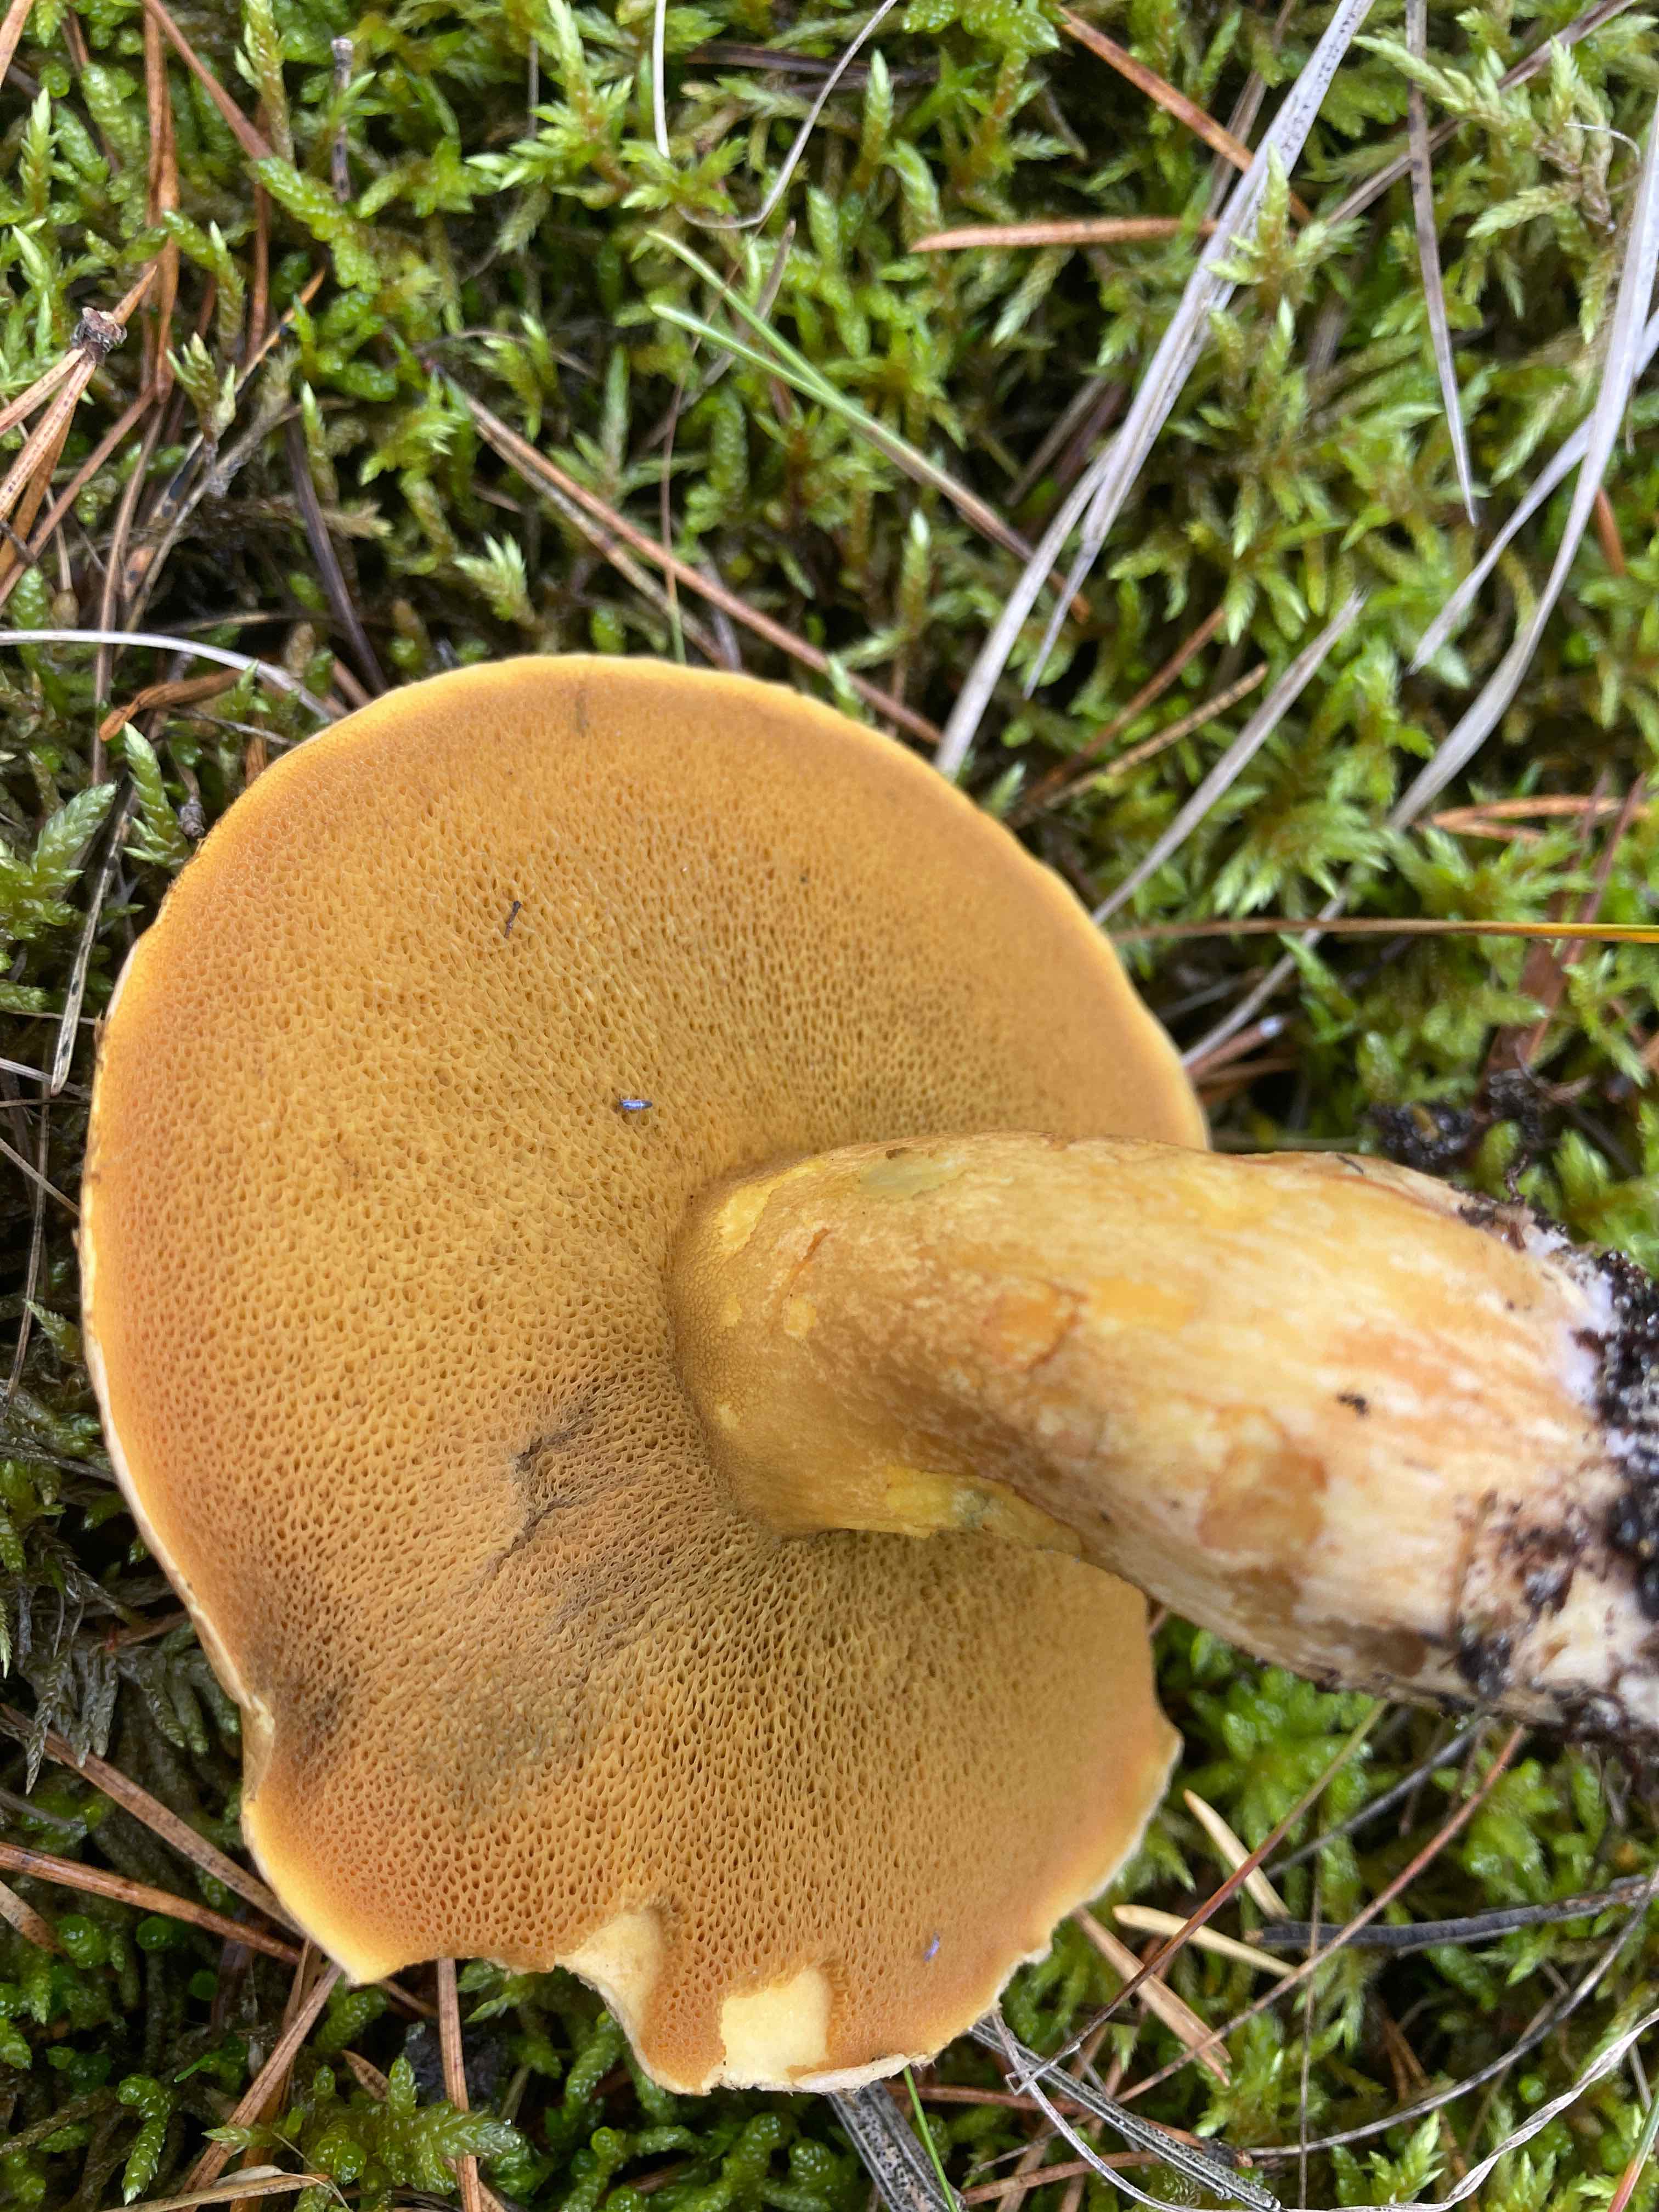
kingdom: Fungi
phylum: Basidiomycota
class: Agaricomycetes
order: Boletales
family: Suillaceae
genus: Suillus
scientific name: Suillus variegatus
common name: broget slimrørhat
